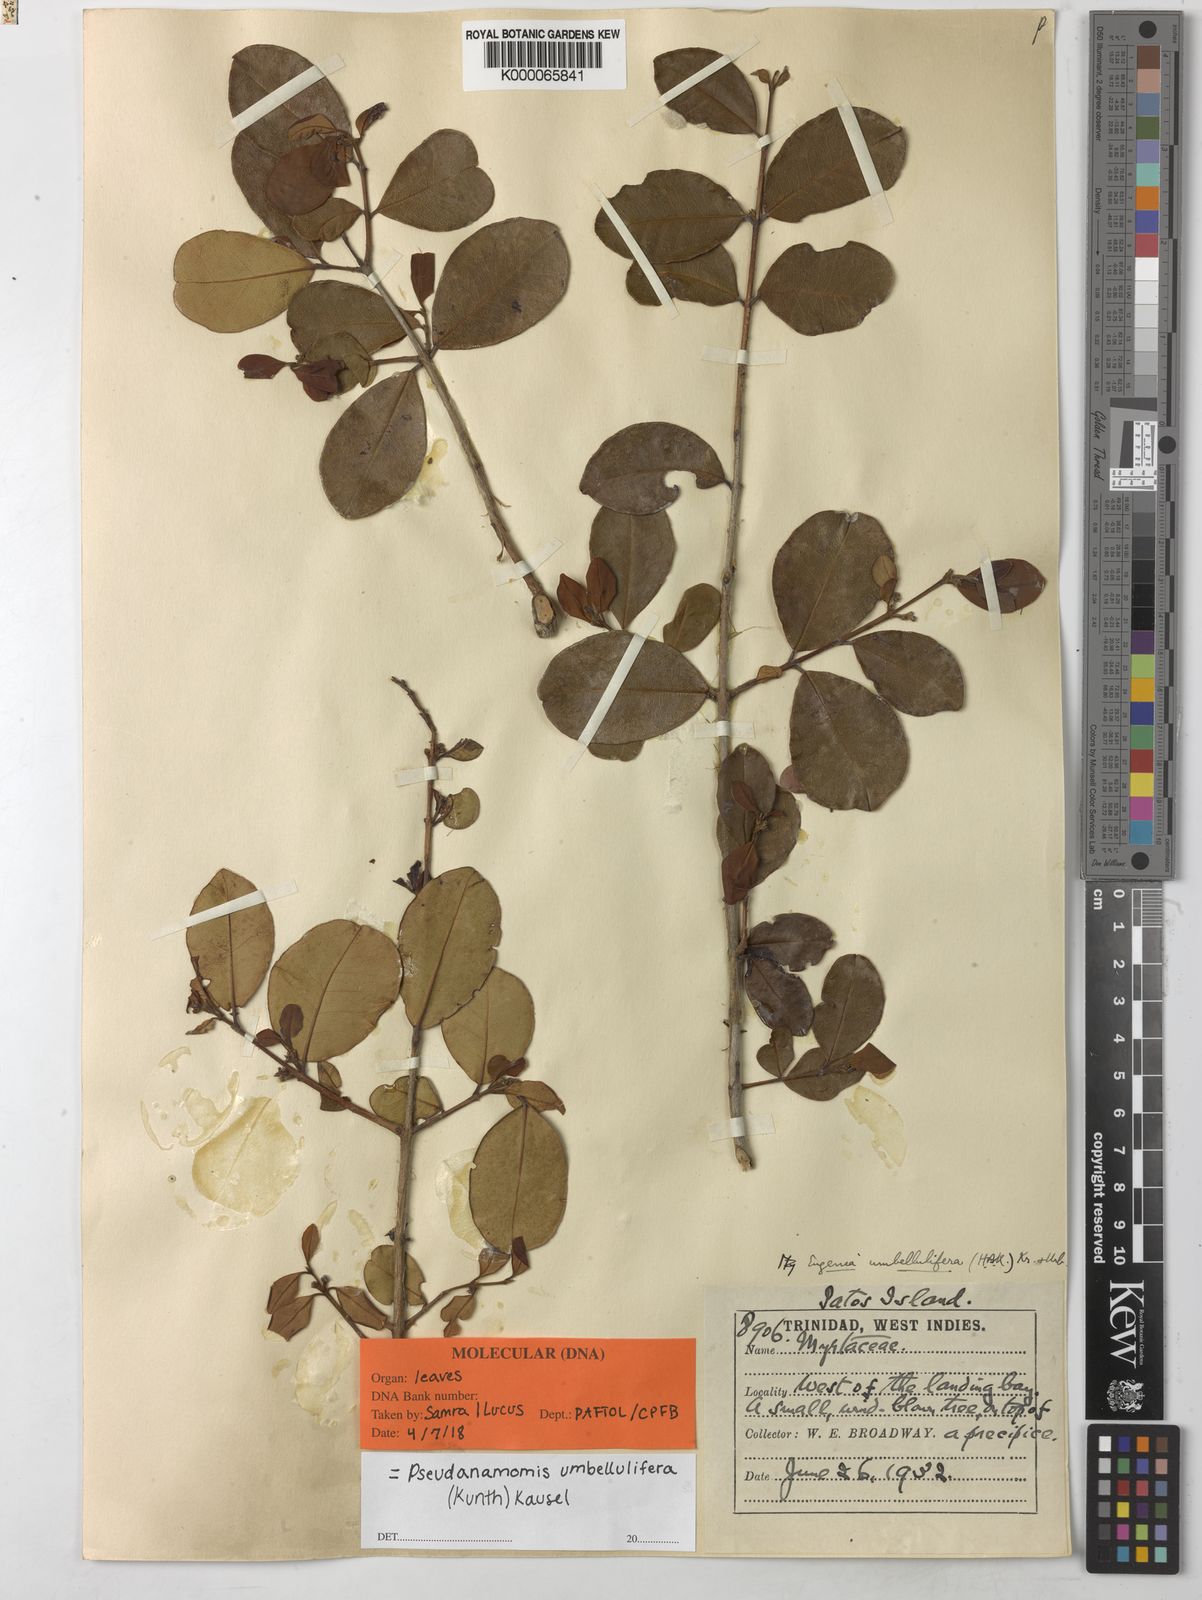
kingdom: Plantae
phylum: Tracheophyta
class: Magnoliopsida
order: Myrtales
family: Myrtaceae
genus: Pseudanamomis
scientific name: Pseudanamomis umbellulifera
